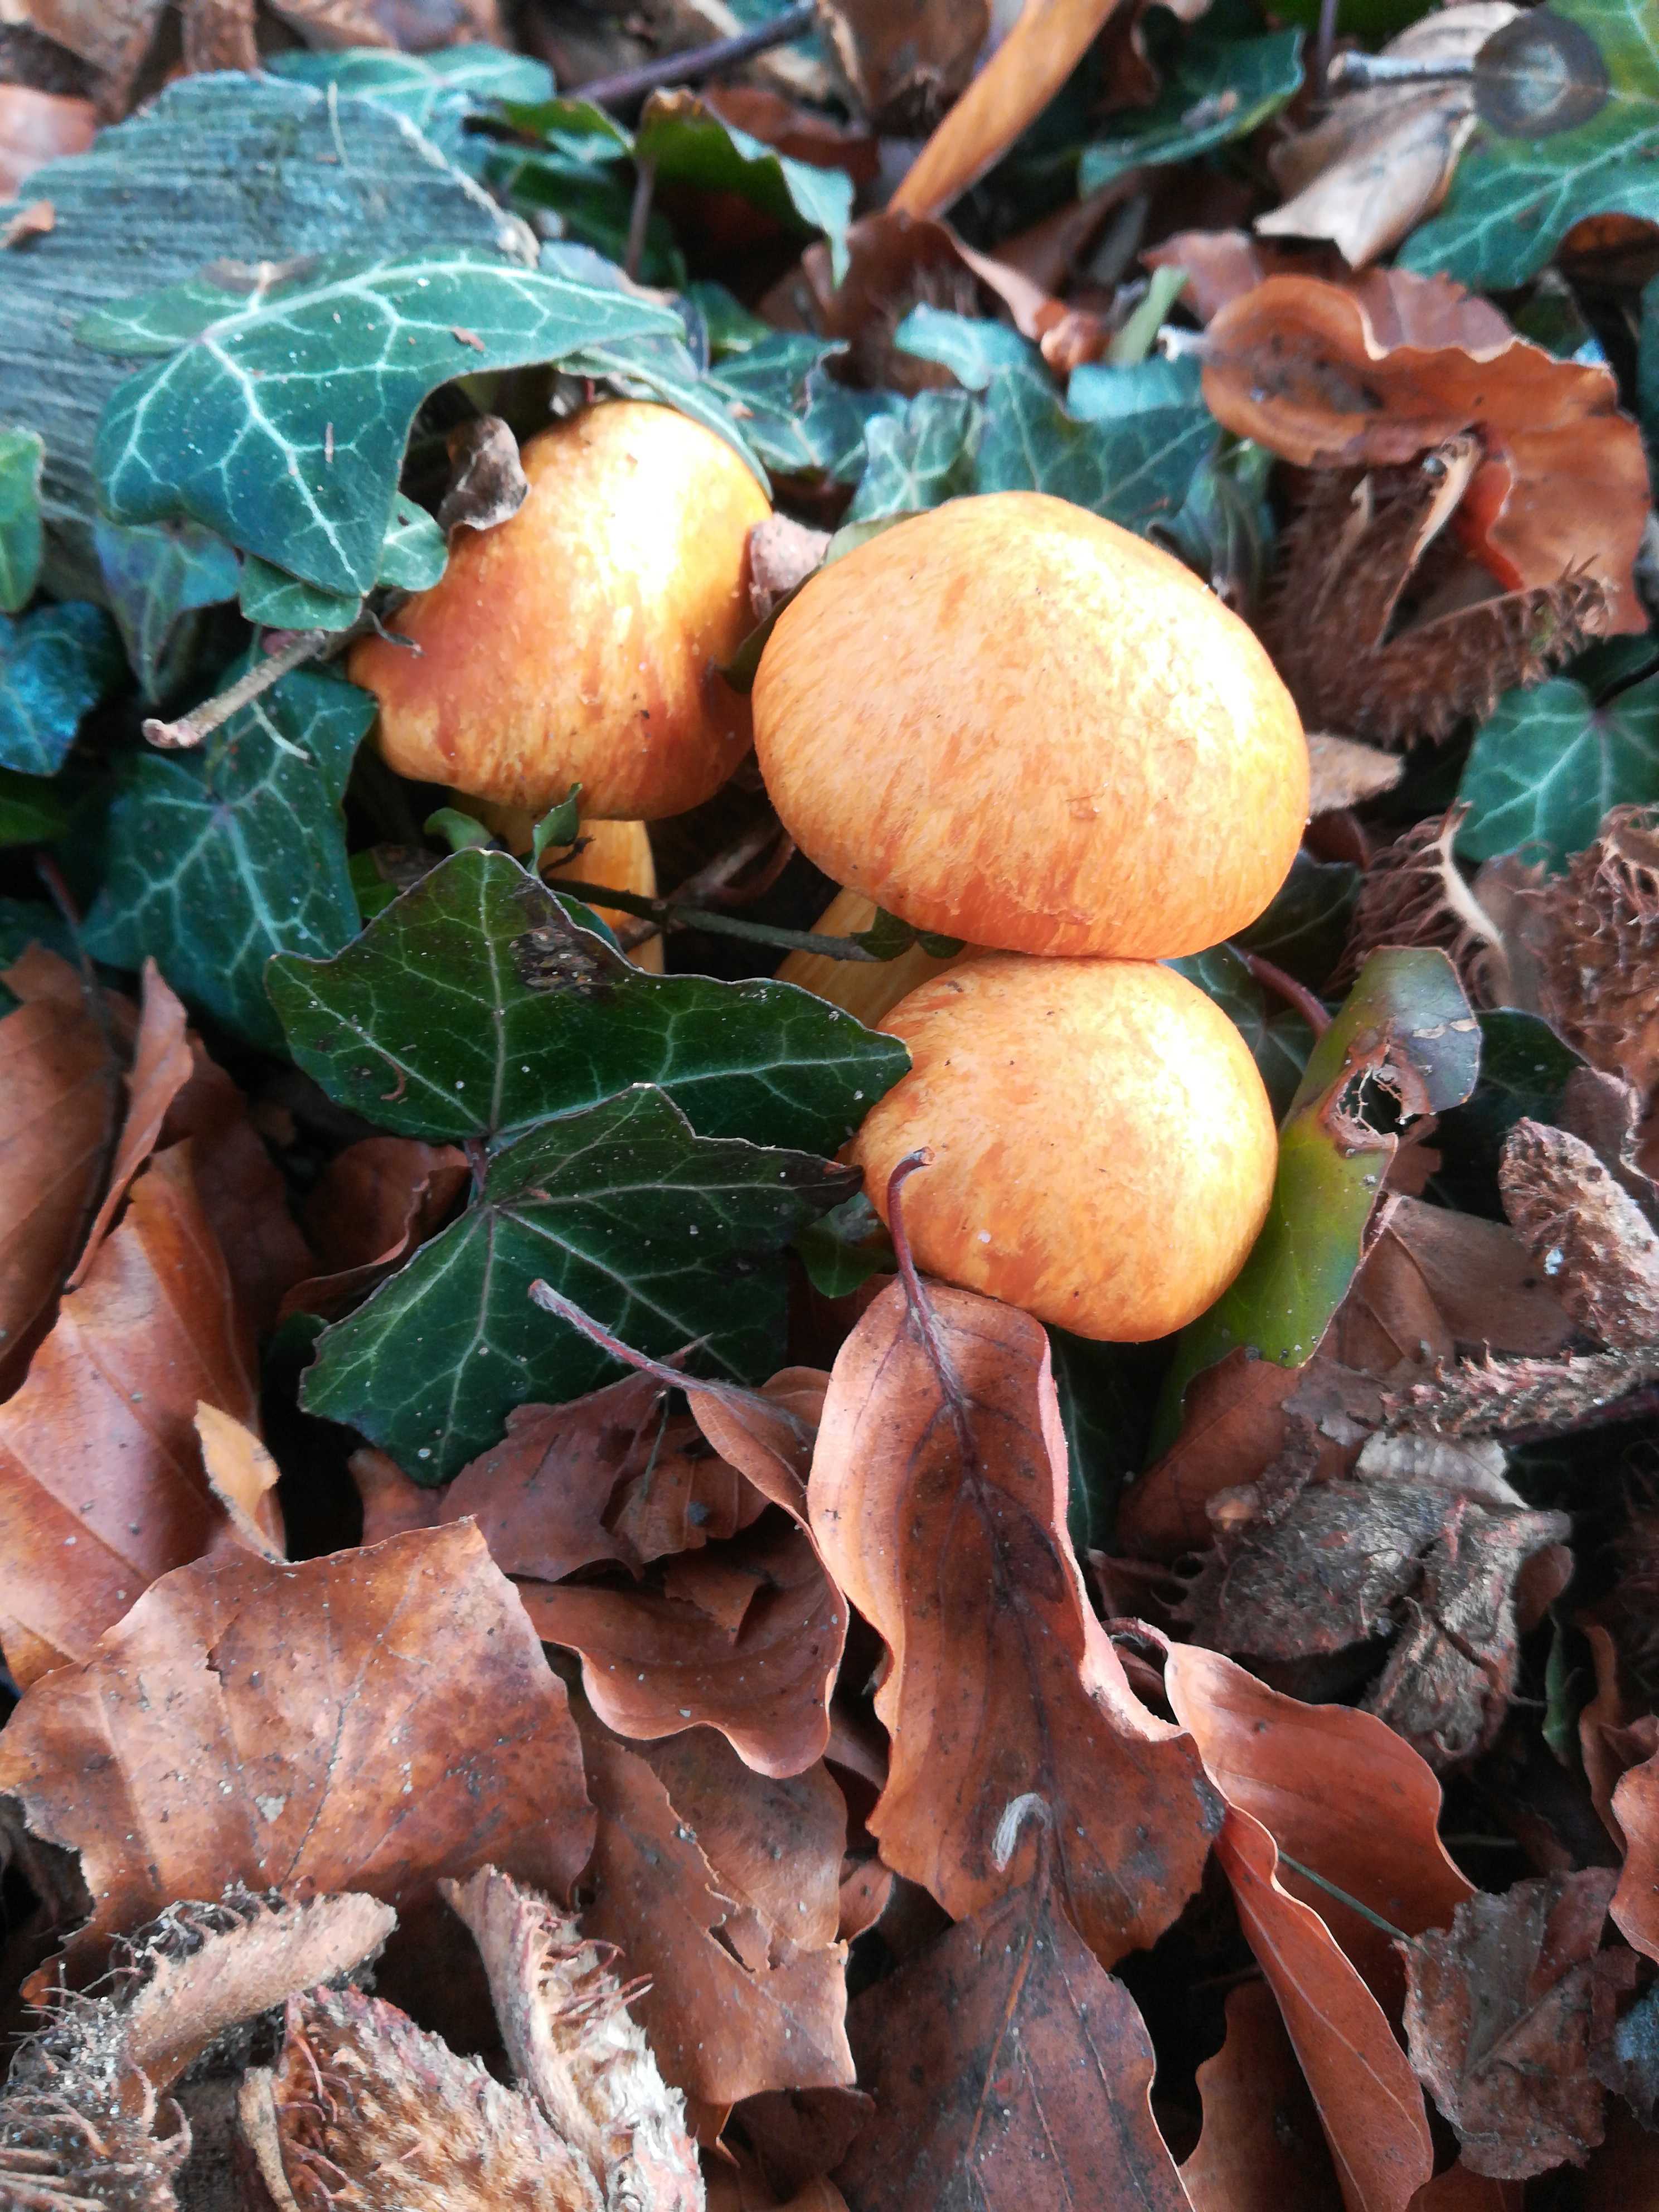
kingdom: Fungi
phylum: Basidiomycota
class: Agaricomycetes
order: Agaricales
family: Hymenogastraceae
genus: Gymnopilus
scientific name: Gymnopilus spectabilis
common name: fibret flammehat
